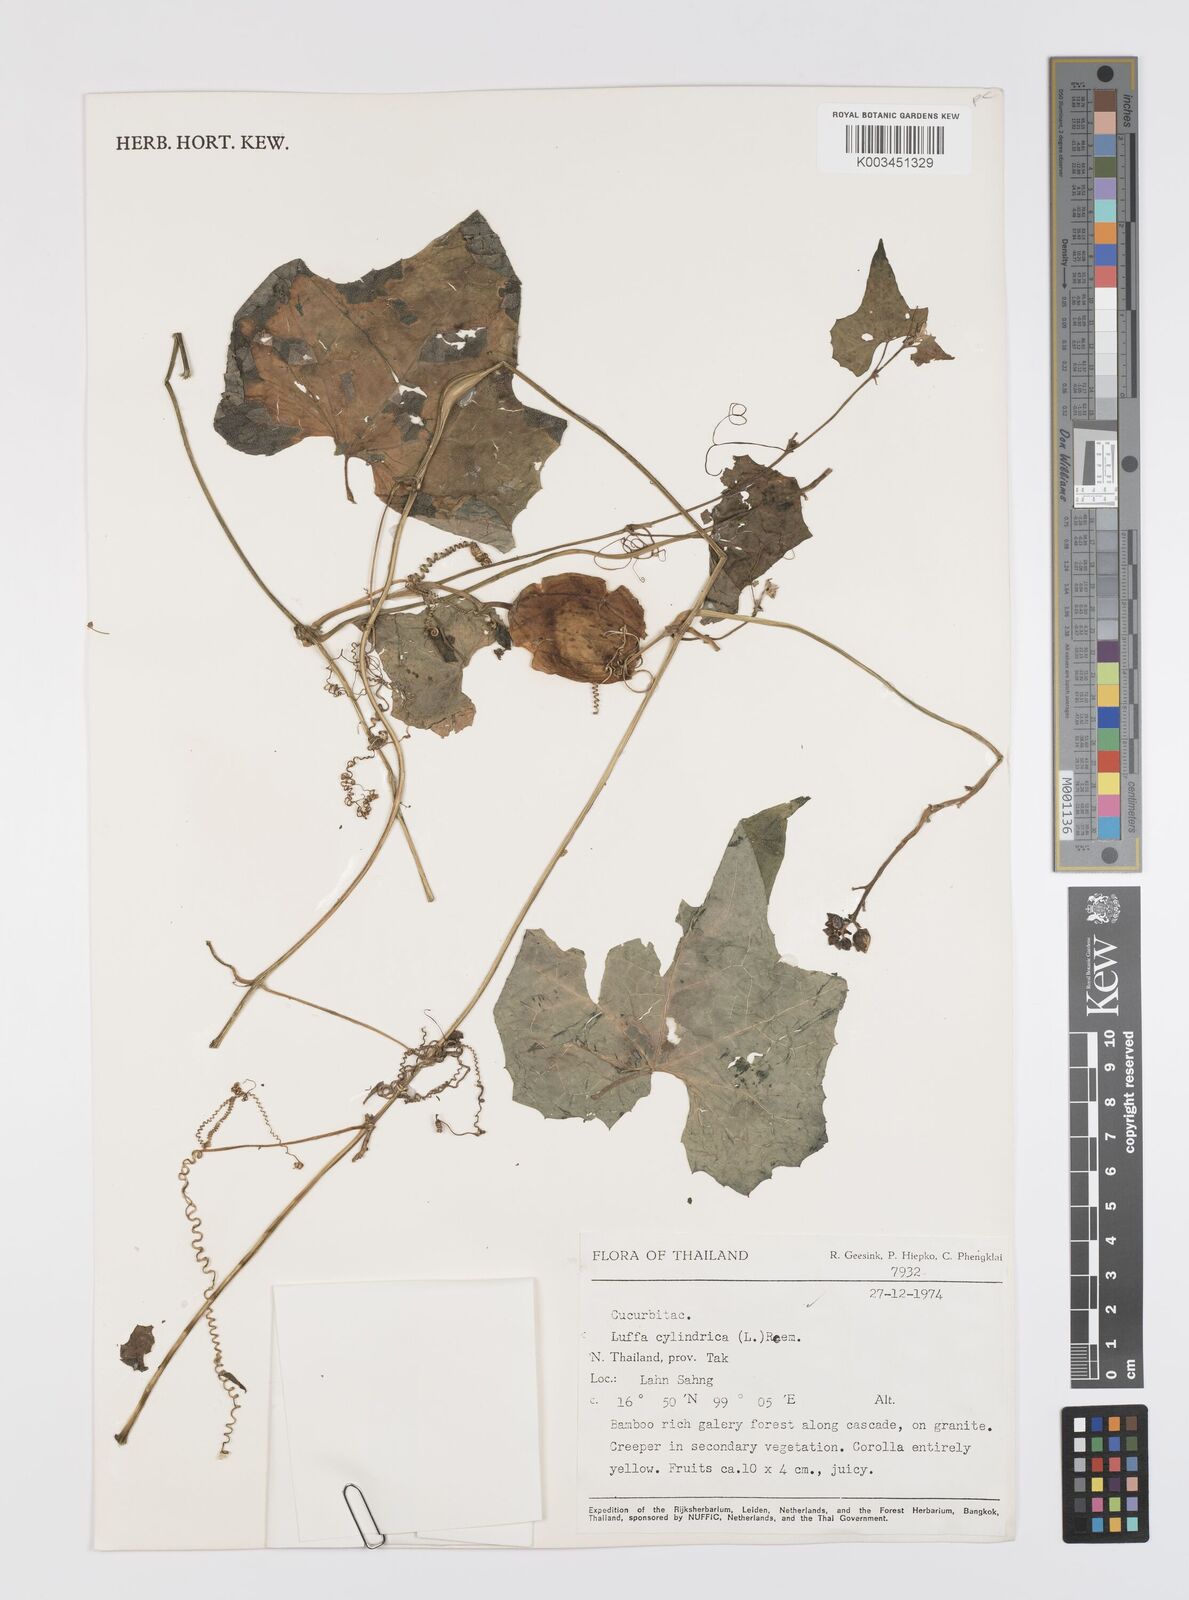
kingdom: Plantae
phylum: Tracheophyta
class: Magnoliopsida
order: Cucurbitales
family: Cucurbitaceae
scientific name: Cucurbitaceae
